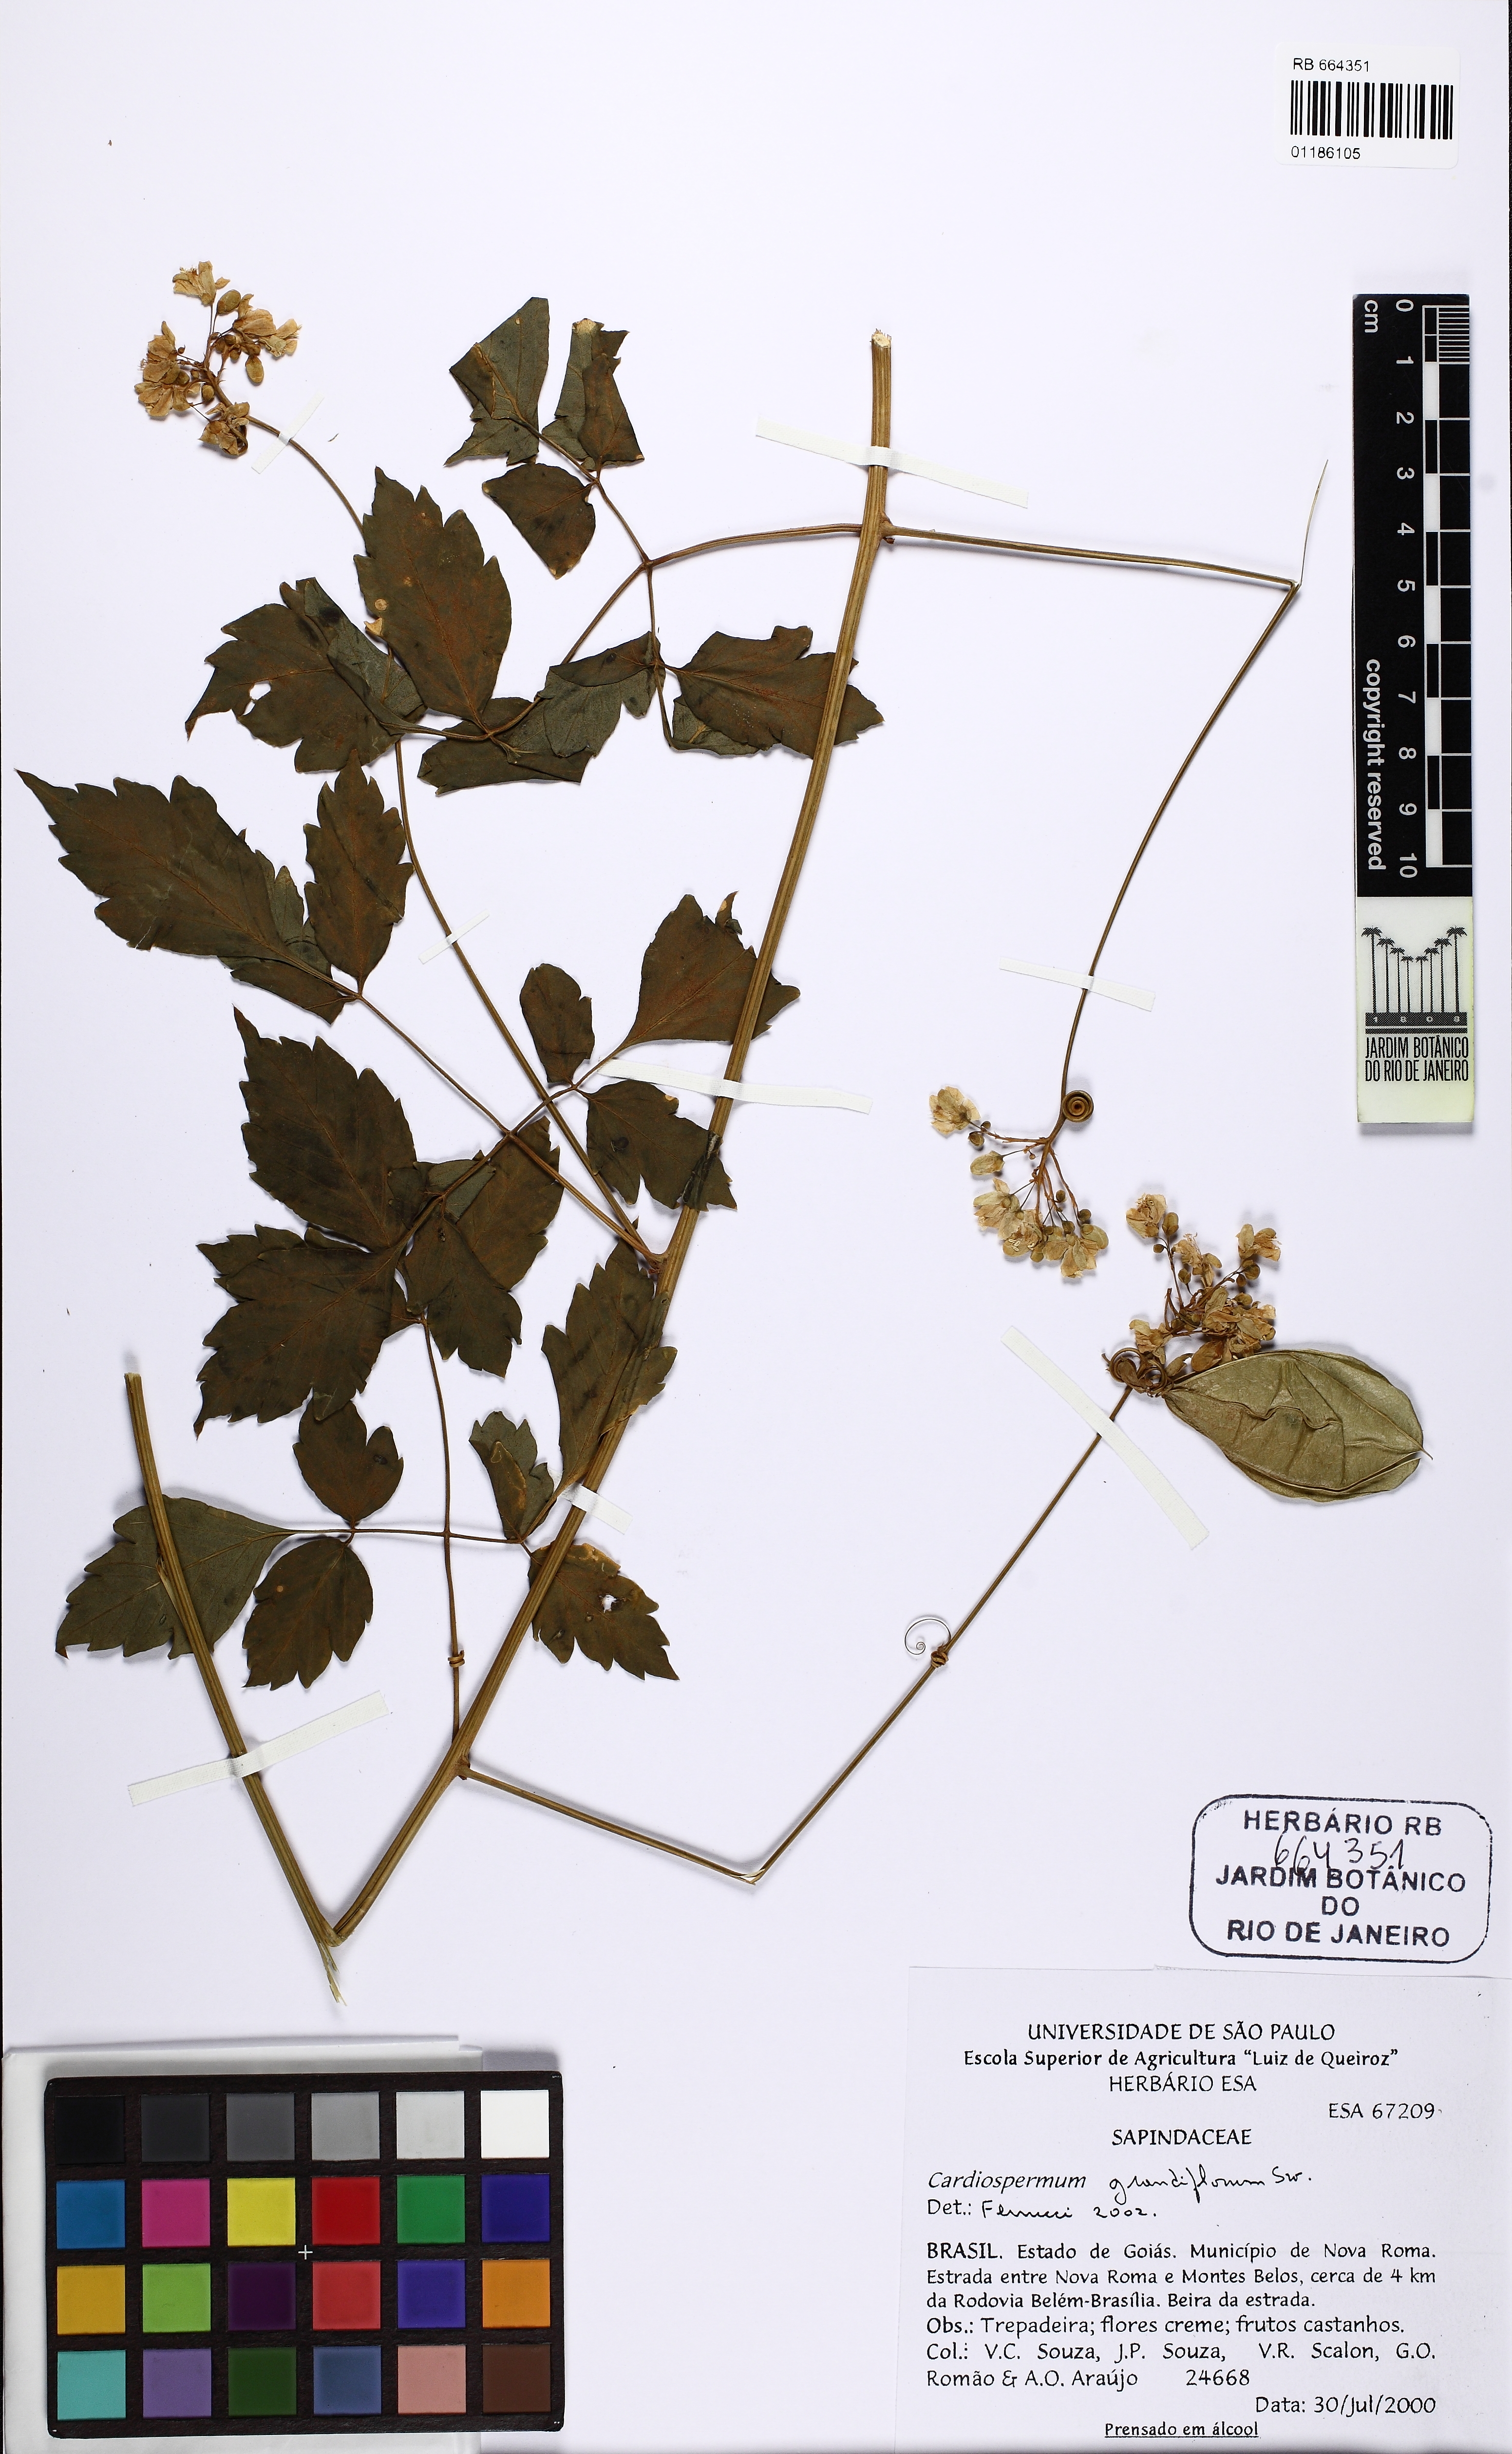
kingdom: Plantae
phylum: Tracheophyta
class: Magnoliopsida
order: Sapindales
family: Sapindaceae
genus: Cardiospermum
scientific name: Cardiospermum grandiflorum
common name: Balloon vine
